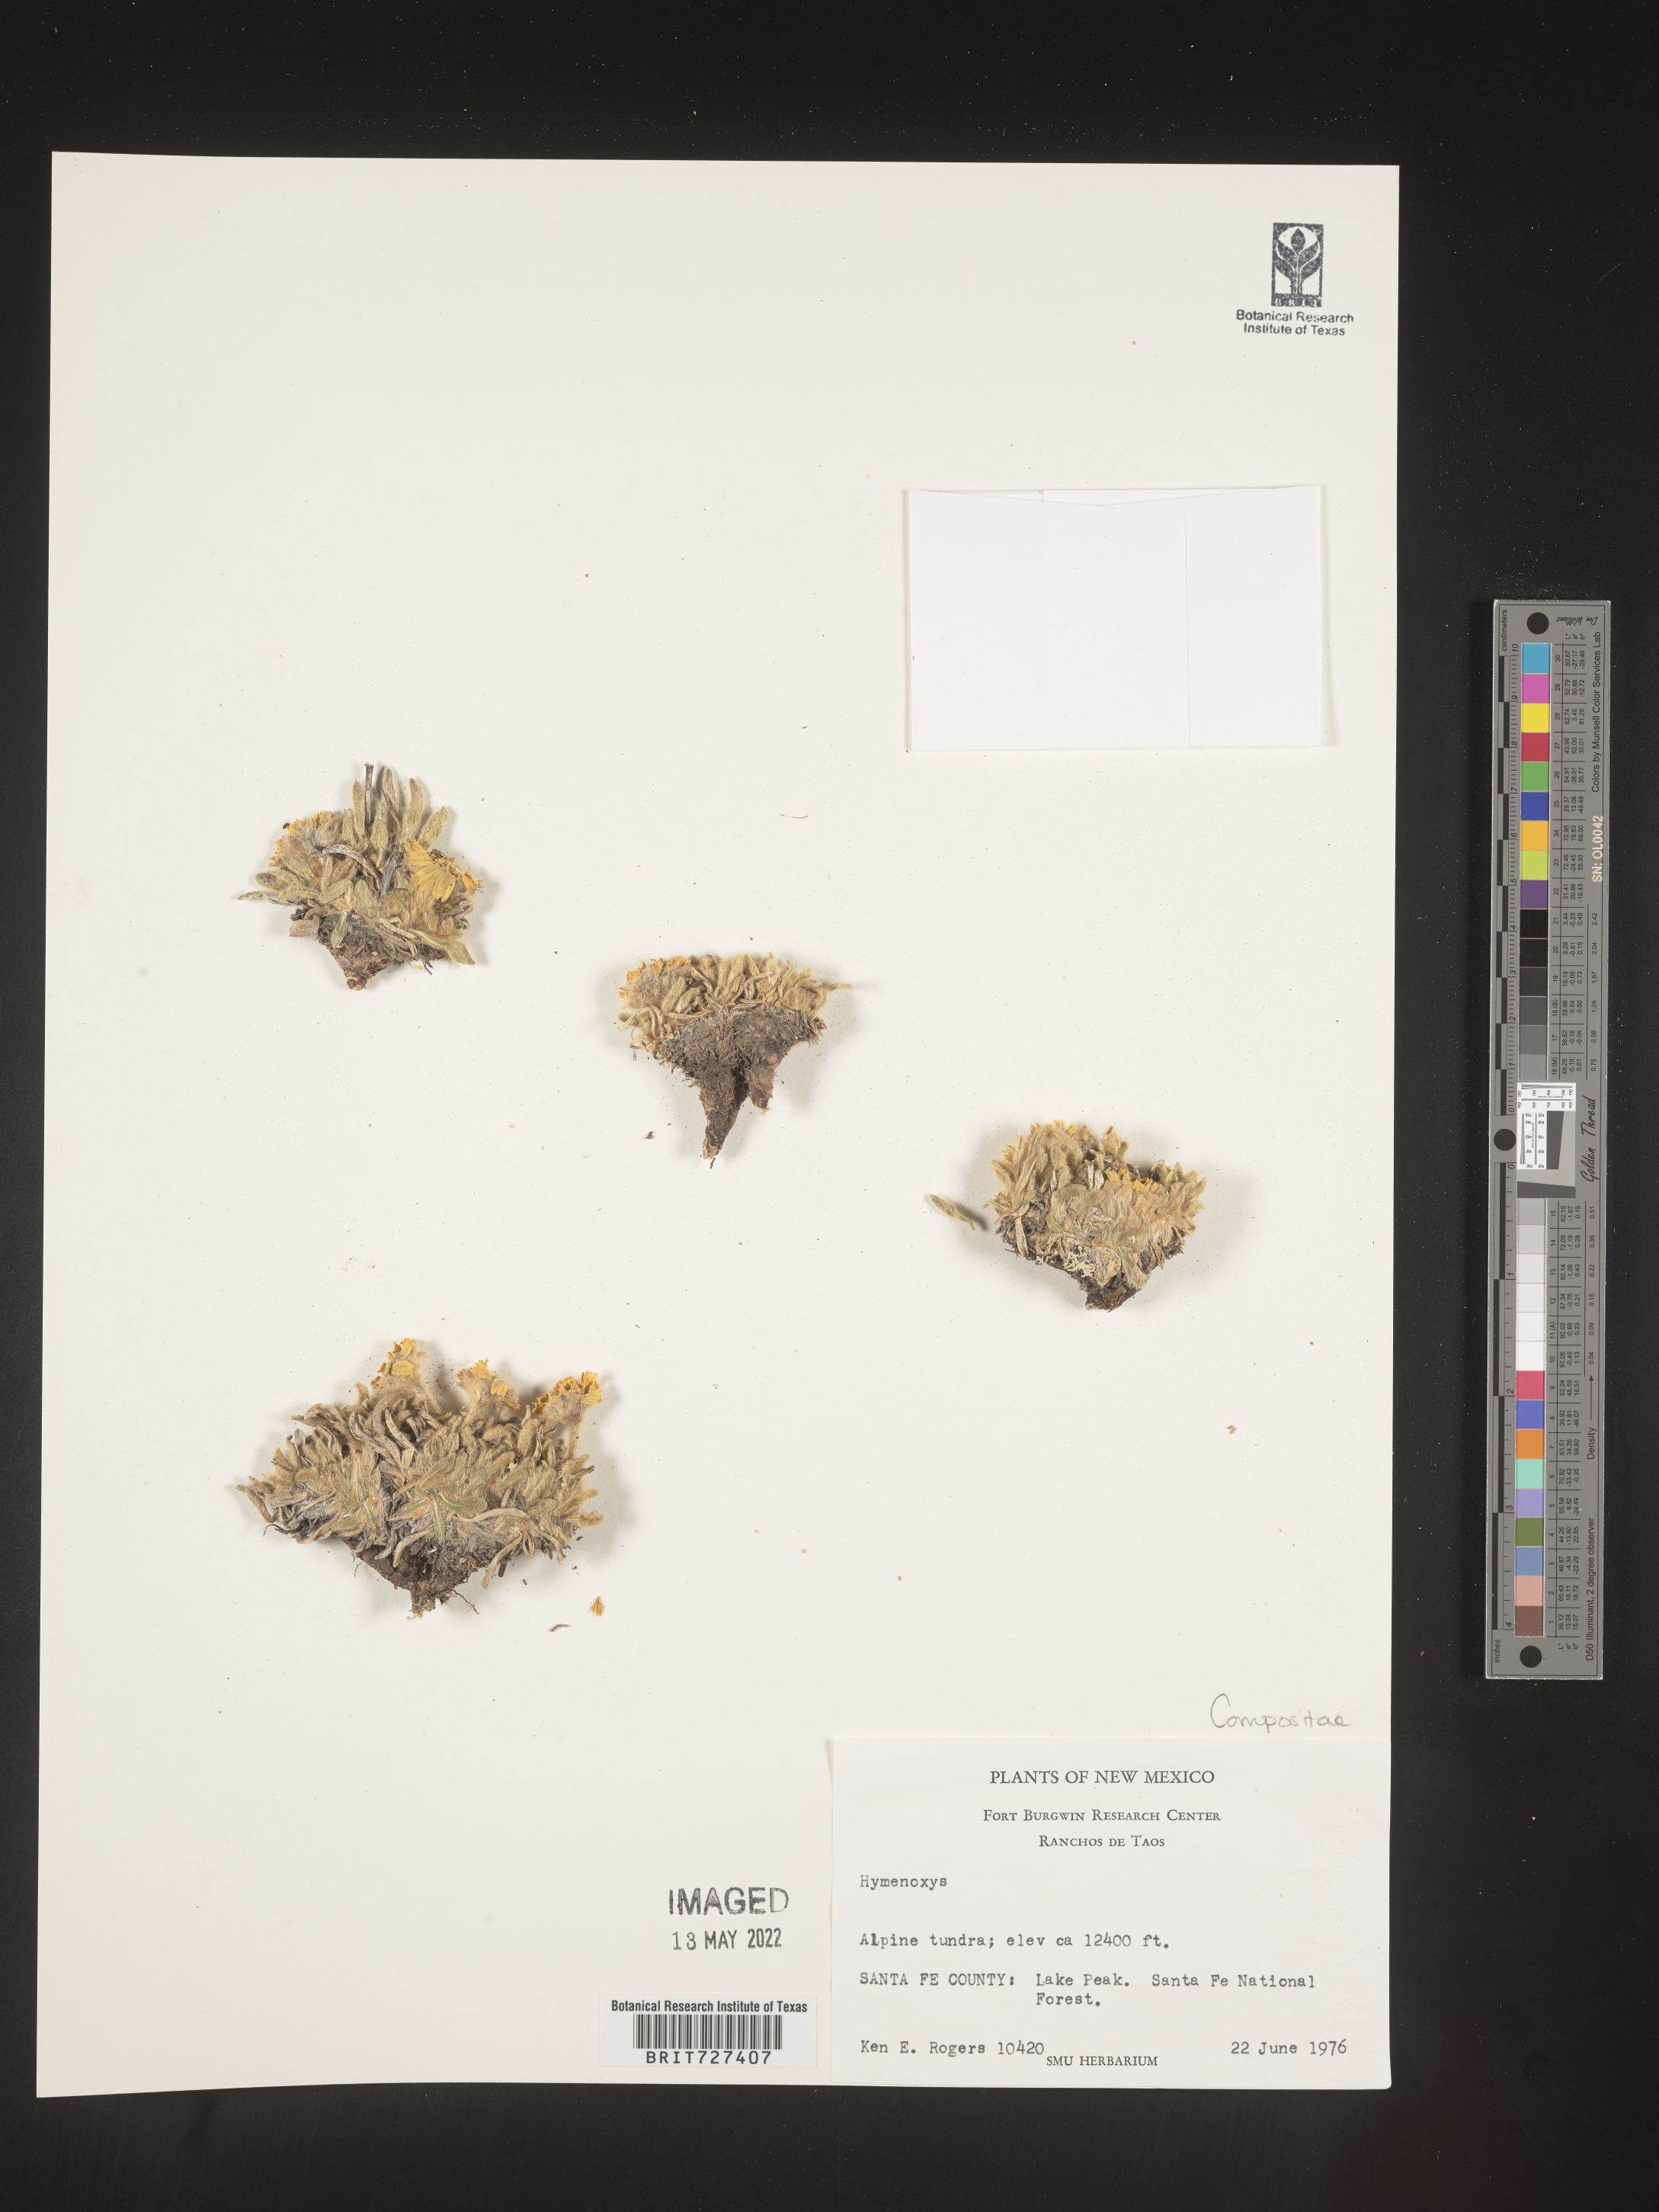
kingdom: Plantae
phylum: Tracheophyta
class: Magnoliopsida
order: Asterales
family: Asteraceae
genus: Hymenoxys
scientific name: Hymenoxys
